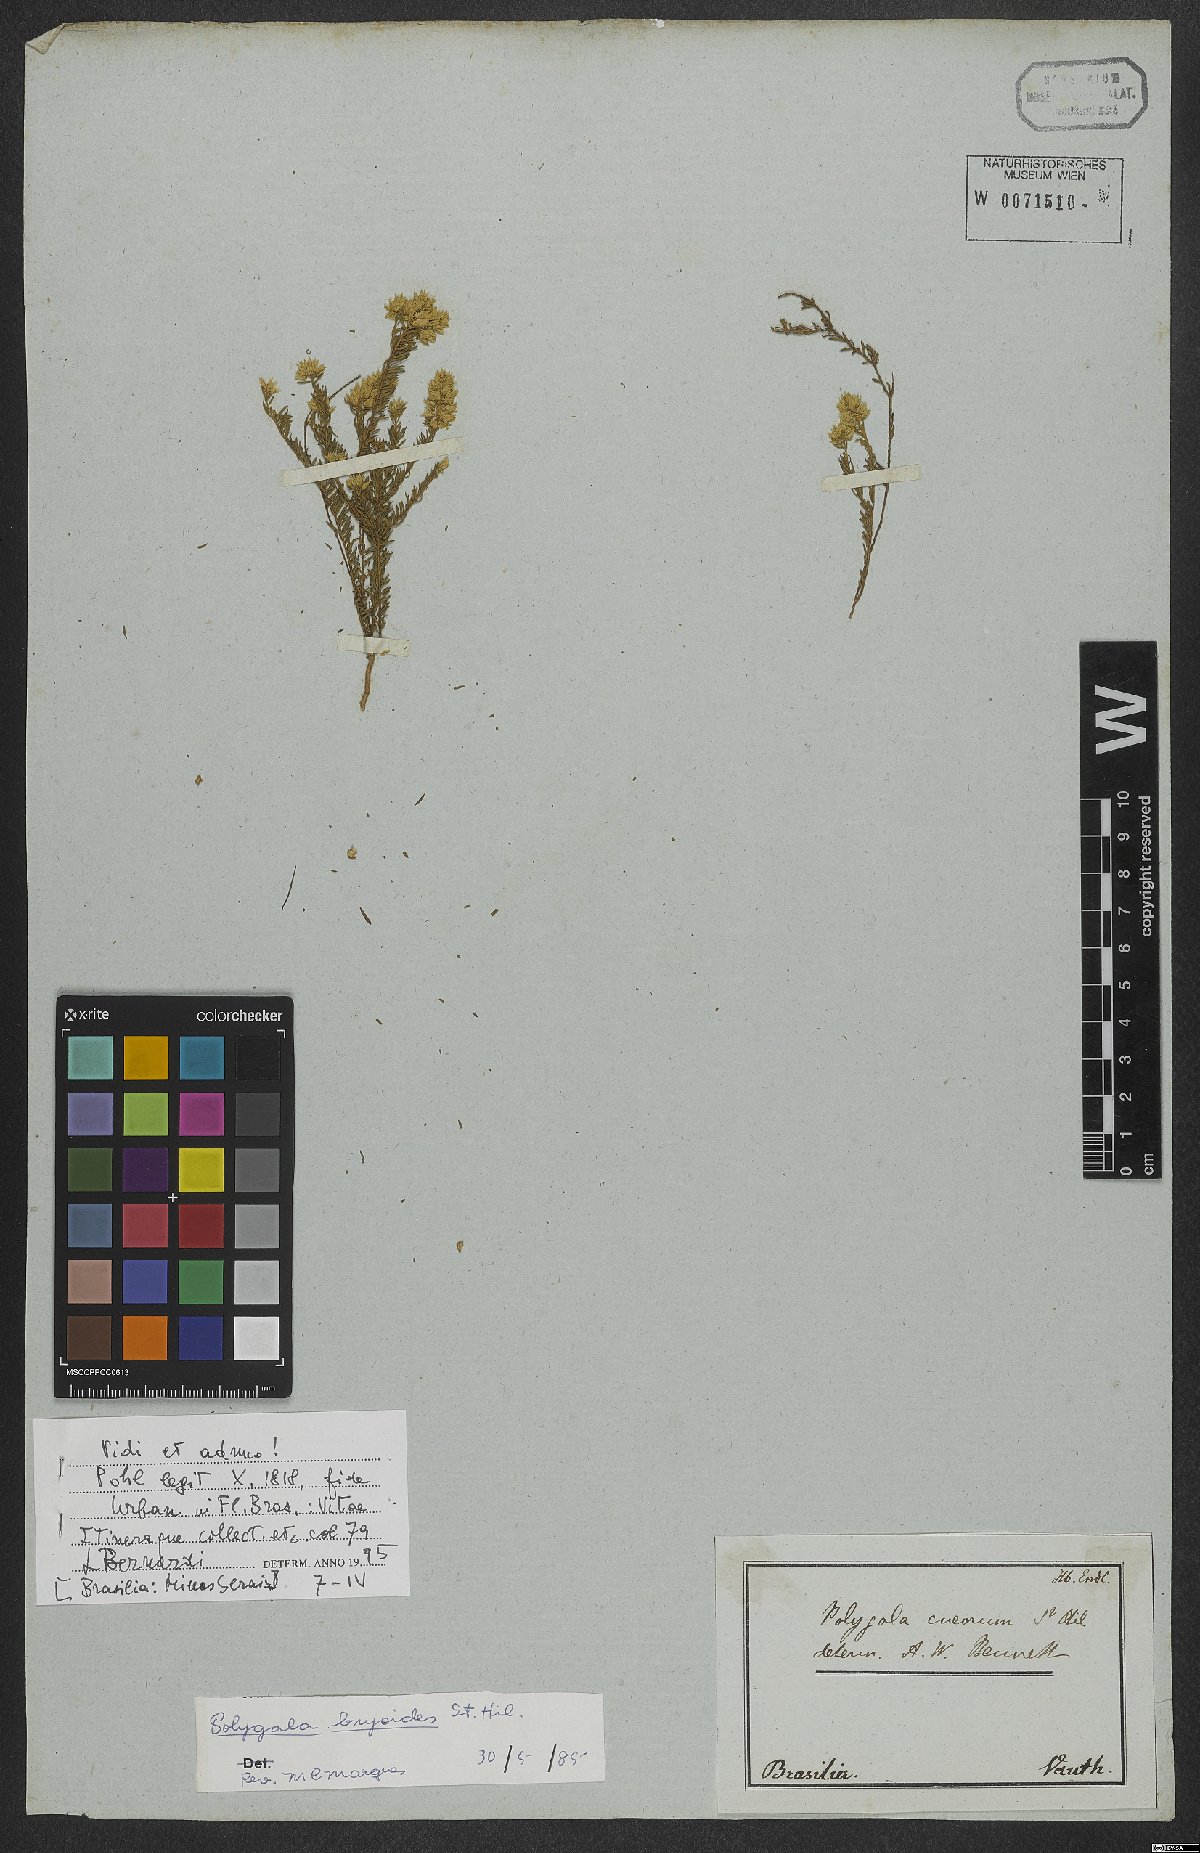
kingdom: Plantae
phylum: Tracheophyta
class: Magnoliopsida
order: Fabales
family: Polygalaceae
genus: Polygala
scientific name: Polygala bryoides
